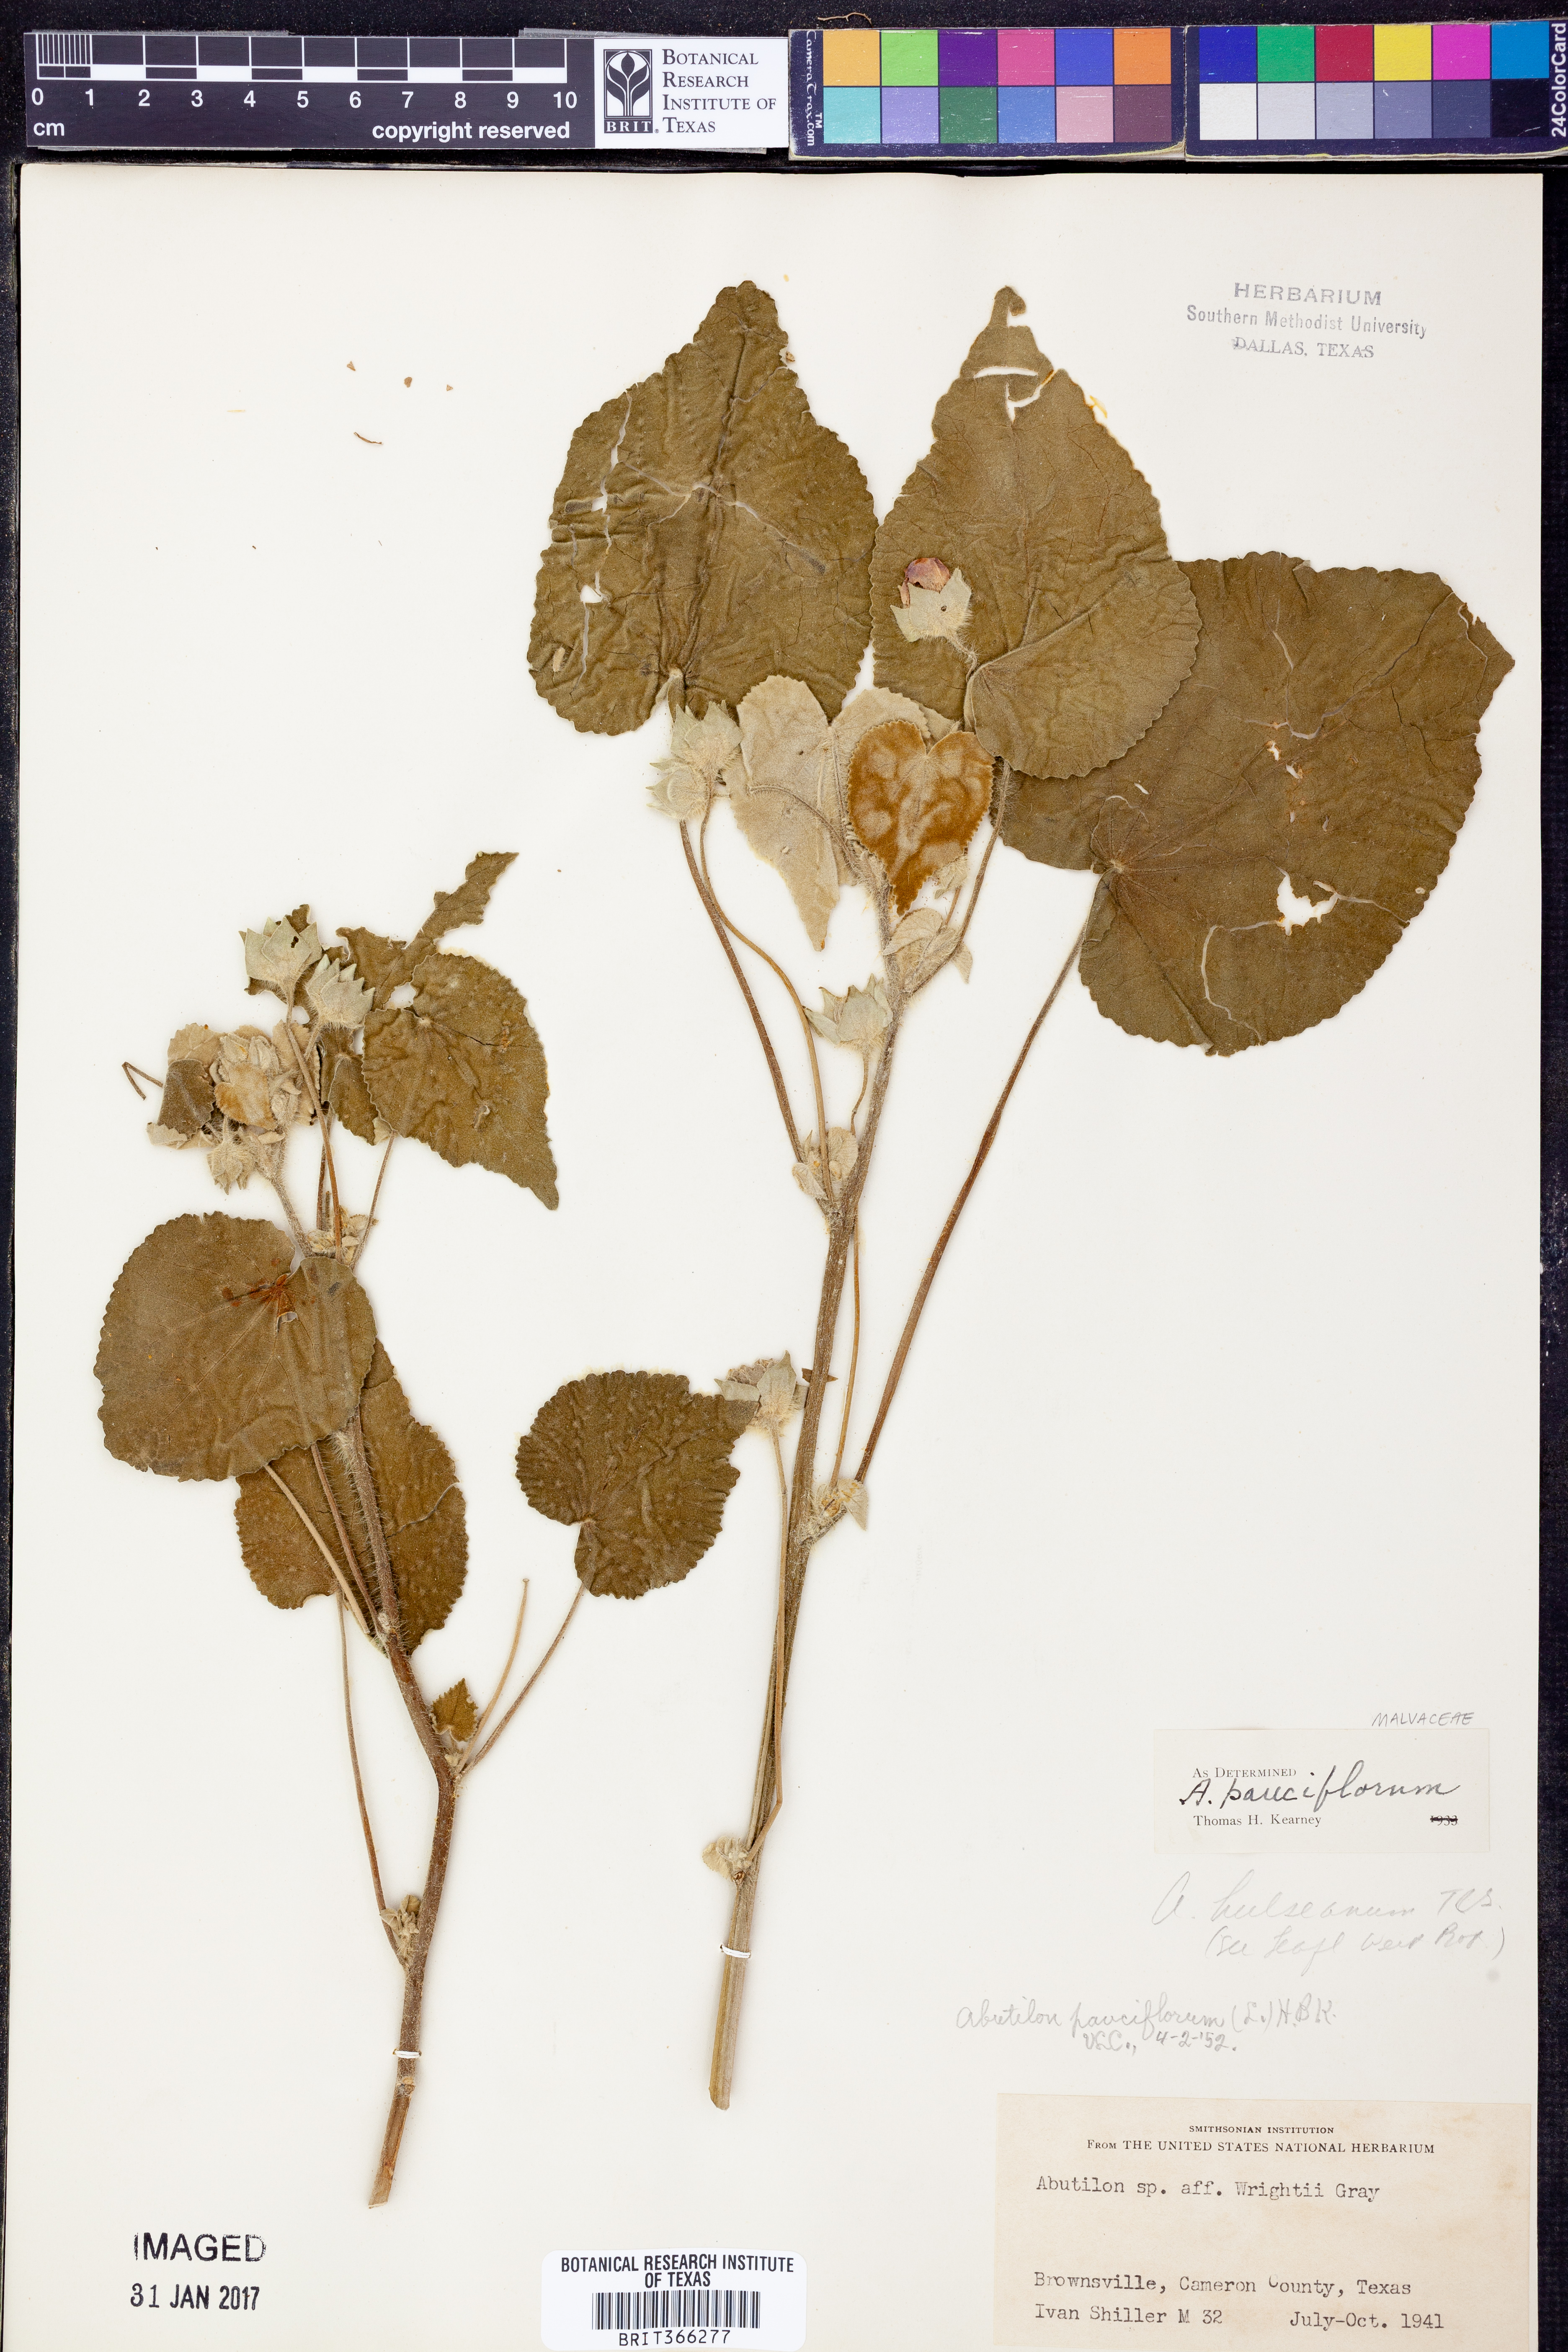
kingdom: Plantae
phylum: Tracheophyta
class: Magnoliopsida
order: Malvales
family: Malvaceae
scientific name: Malvaceae
